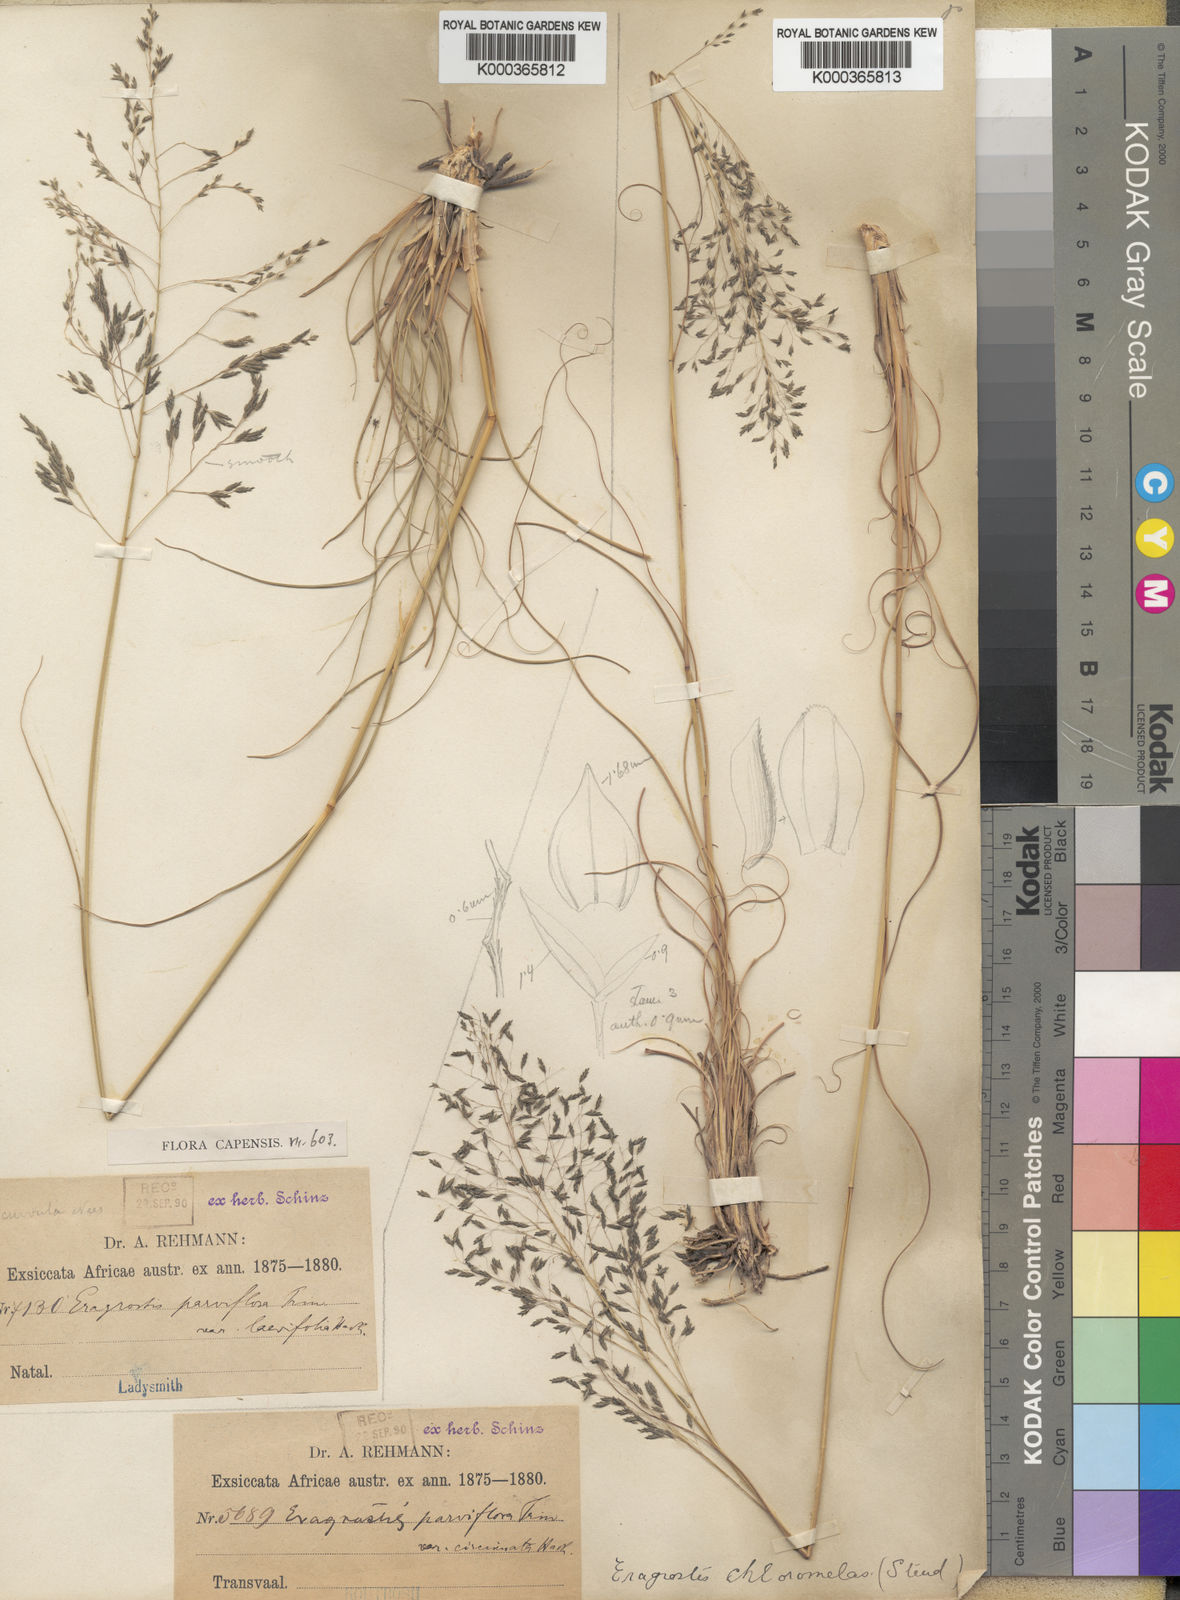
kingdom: Plantae
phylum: Tracheophyta
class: Liliopsida
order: Poales
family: Poaceae
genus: Eragrostis
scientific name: Eragrostis curvula
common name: African love-grass
